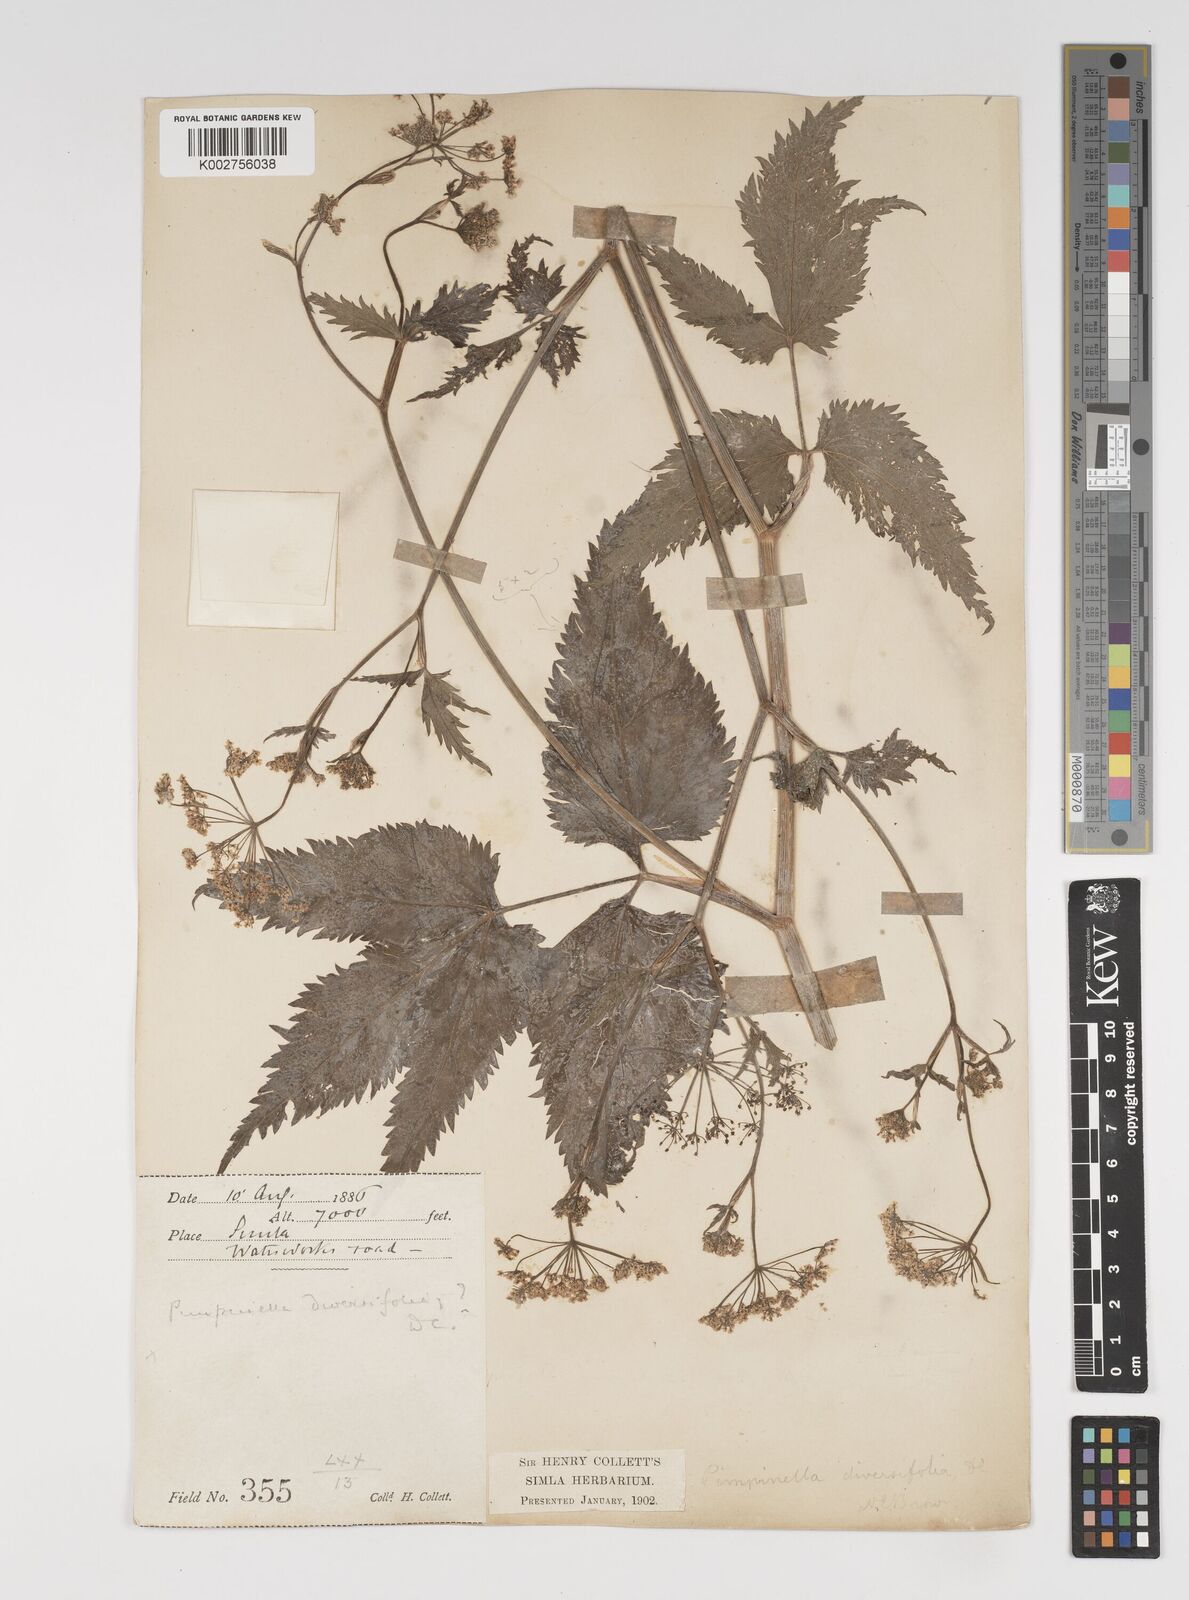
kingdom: Plantae
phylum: Tracheophyta
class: Magnoliopsida
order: Apiales
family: Apiaceae
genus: Pimpinella
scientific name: Pimpinella diversifolia
